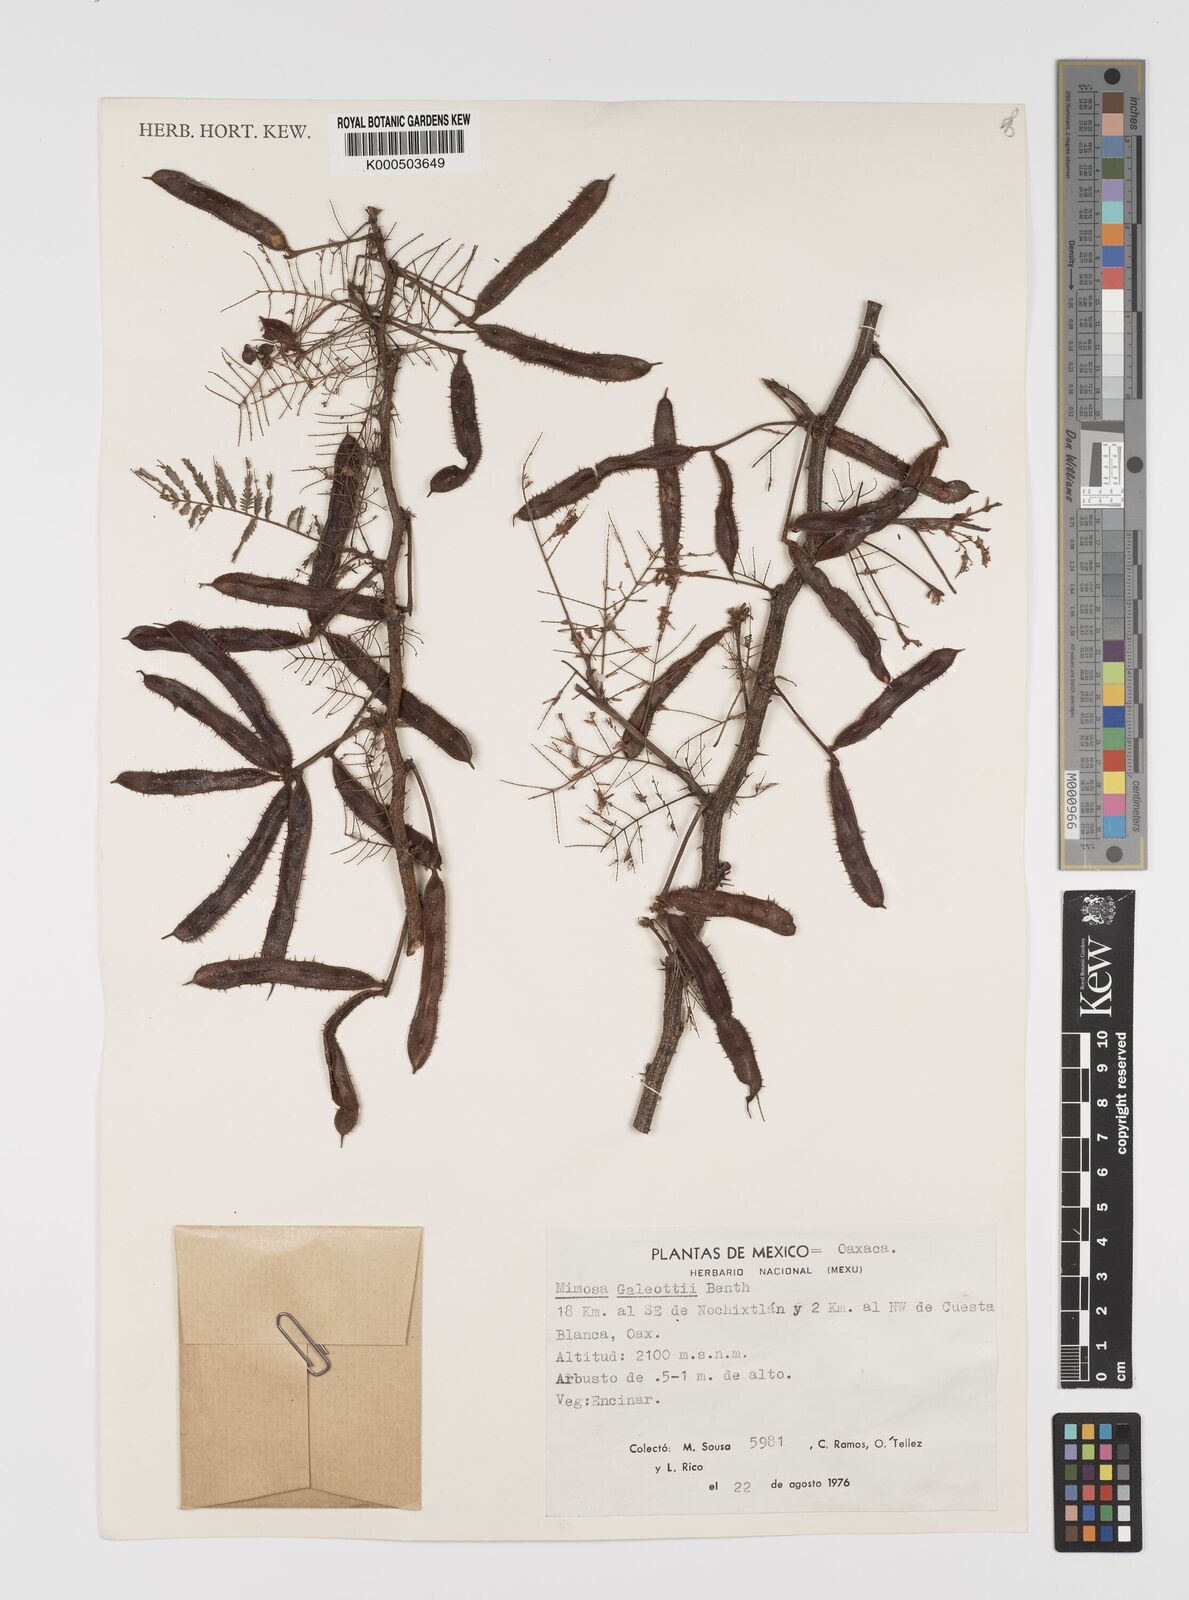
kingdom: Plantae
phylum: Tracheophyta
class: Magnoliopsida
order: Fabales
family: Fabaceae
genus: Mimosa
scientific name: Mimosa galeottii
